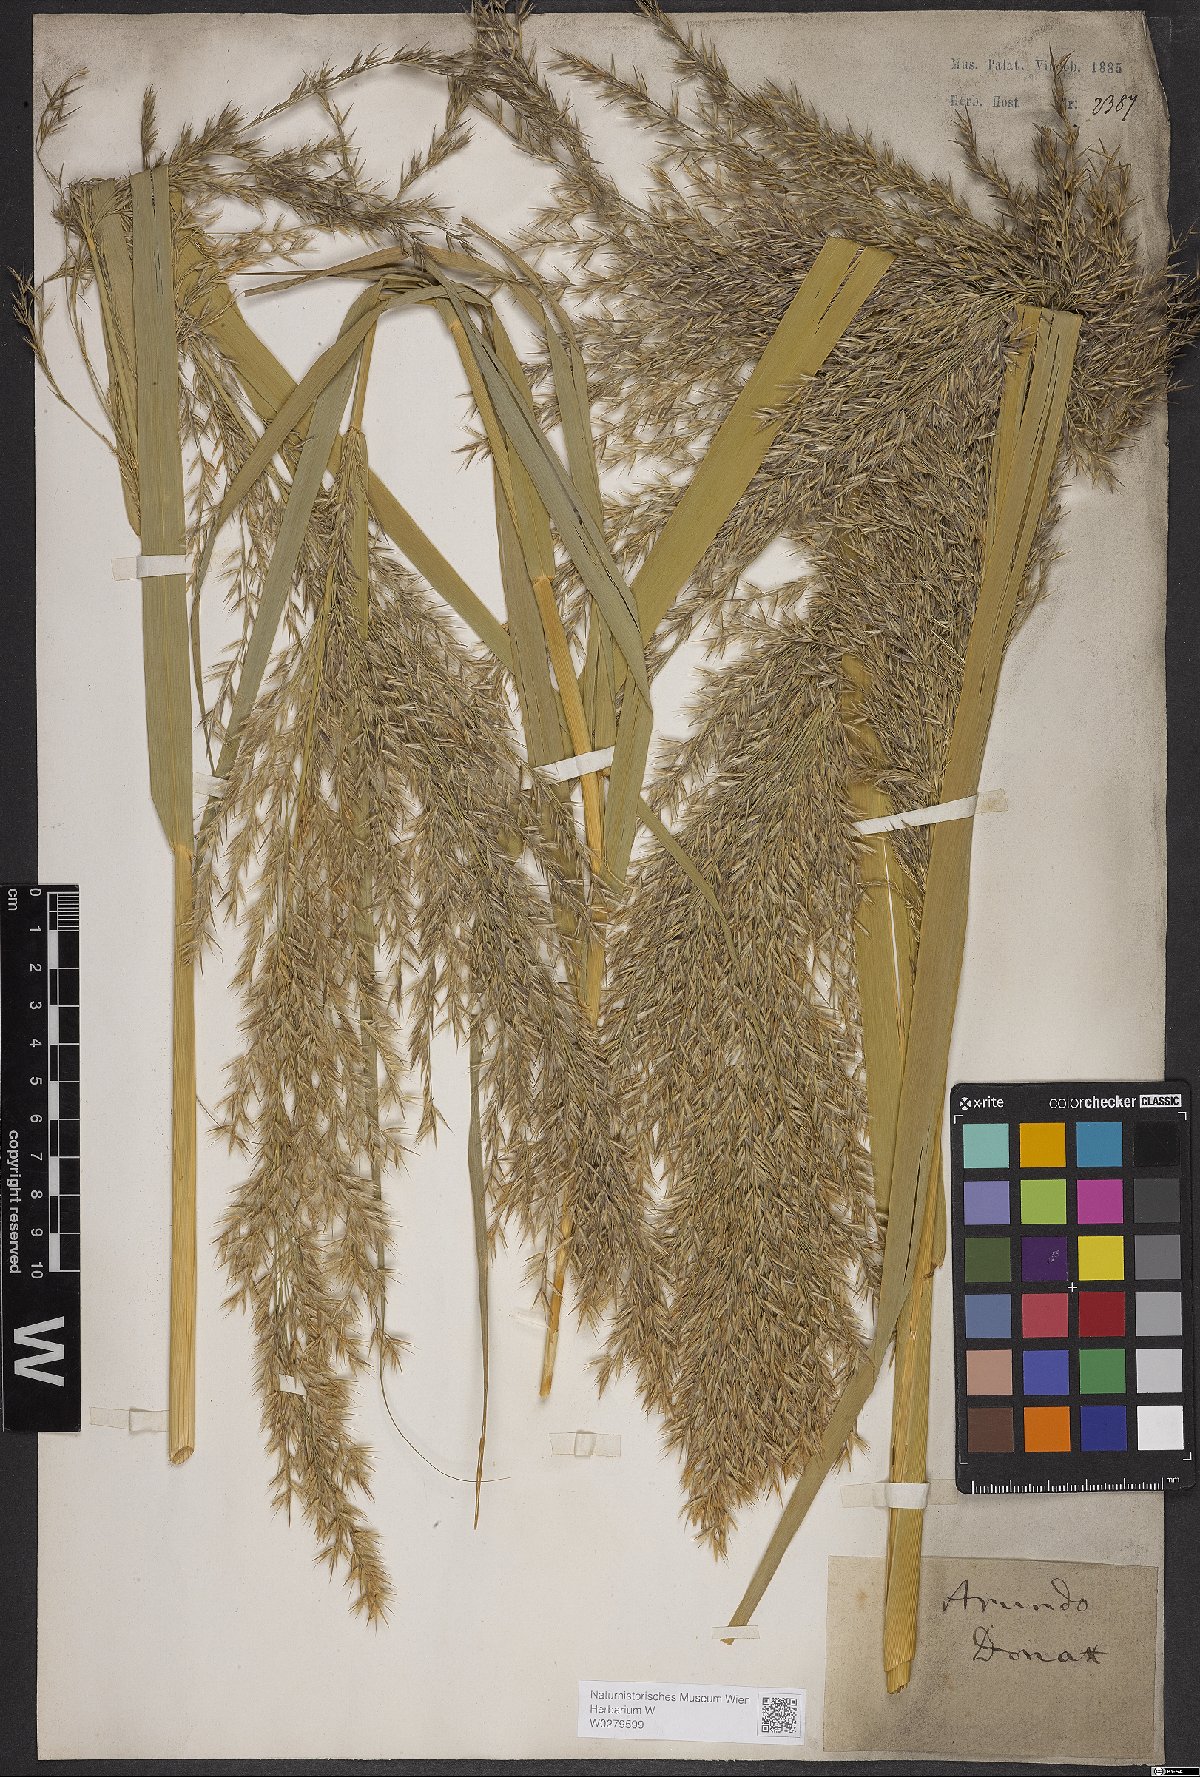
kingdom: Plantae
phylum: Tracheophyta
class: Liliopsida
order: Poales
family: Poaceae
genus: Arundo
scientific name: Arundo donax
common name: Giant reed
